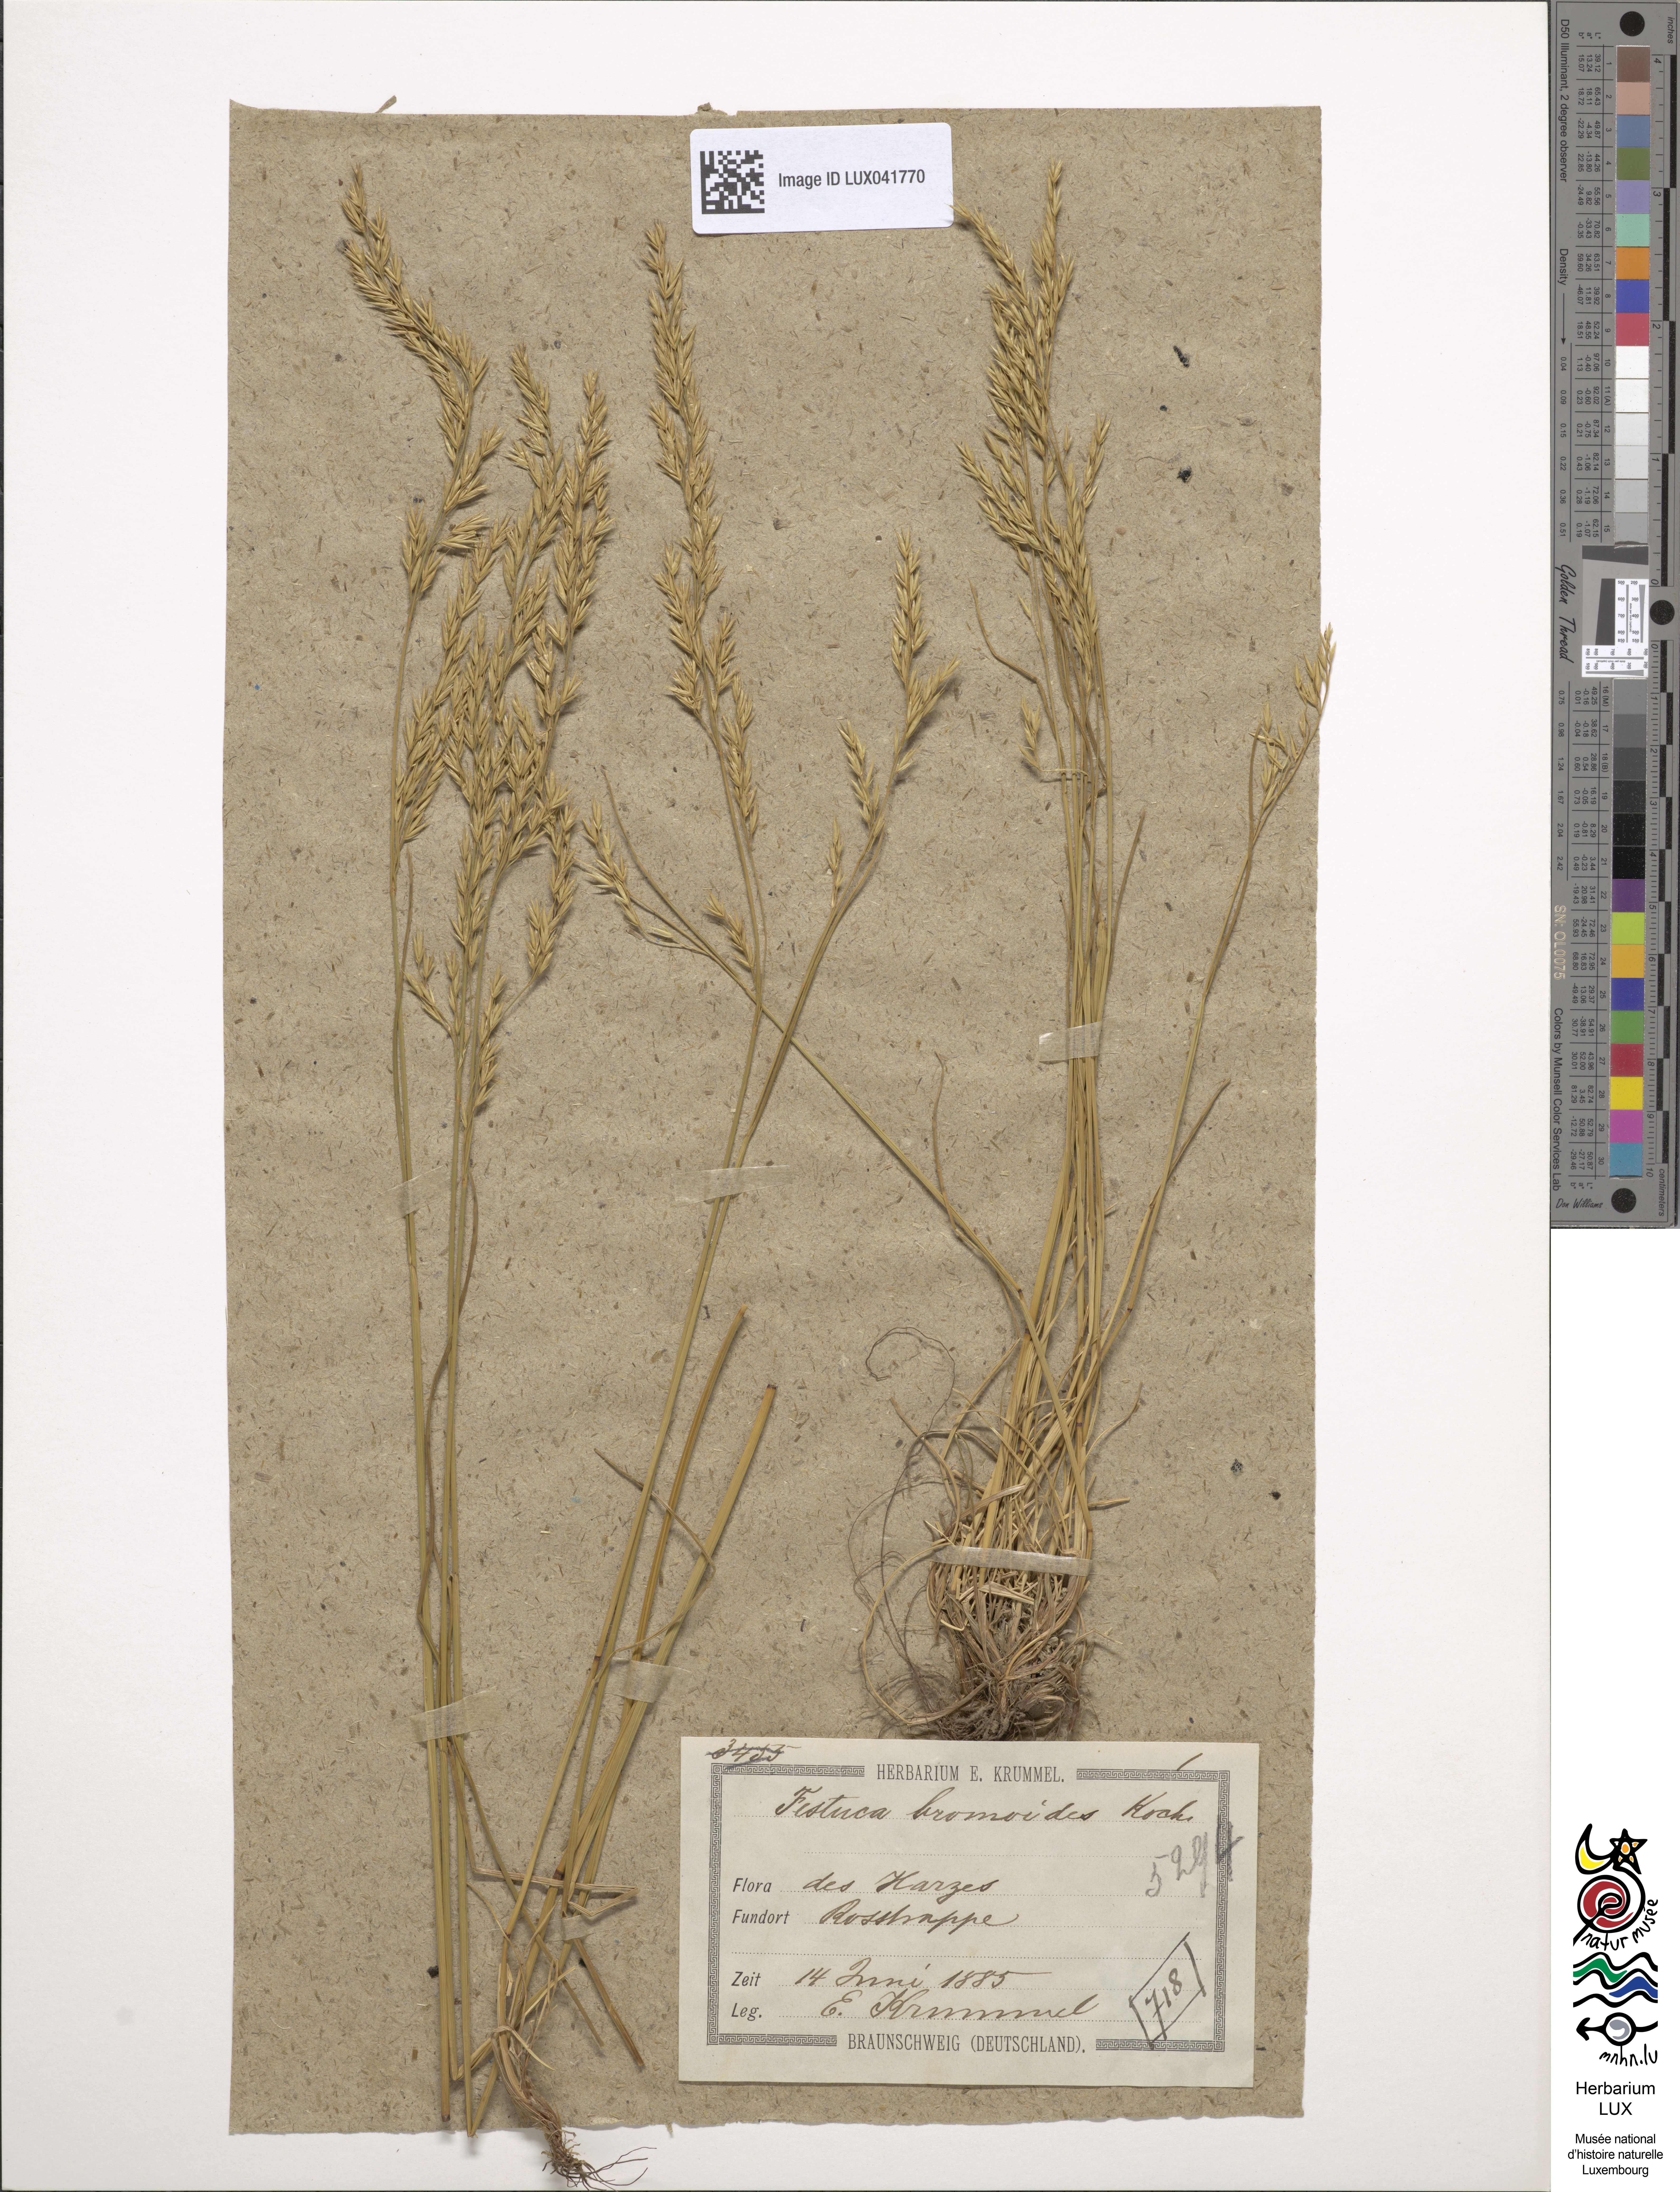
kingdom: Plantae
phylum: Tracheophyta
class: Liliopsida
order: Poales
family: Poaceae
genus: Festuca
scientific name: Festuca bromoides
